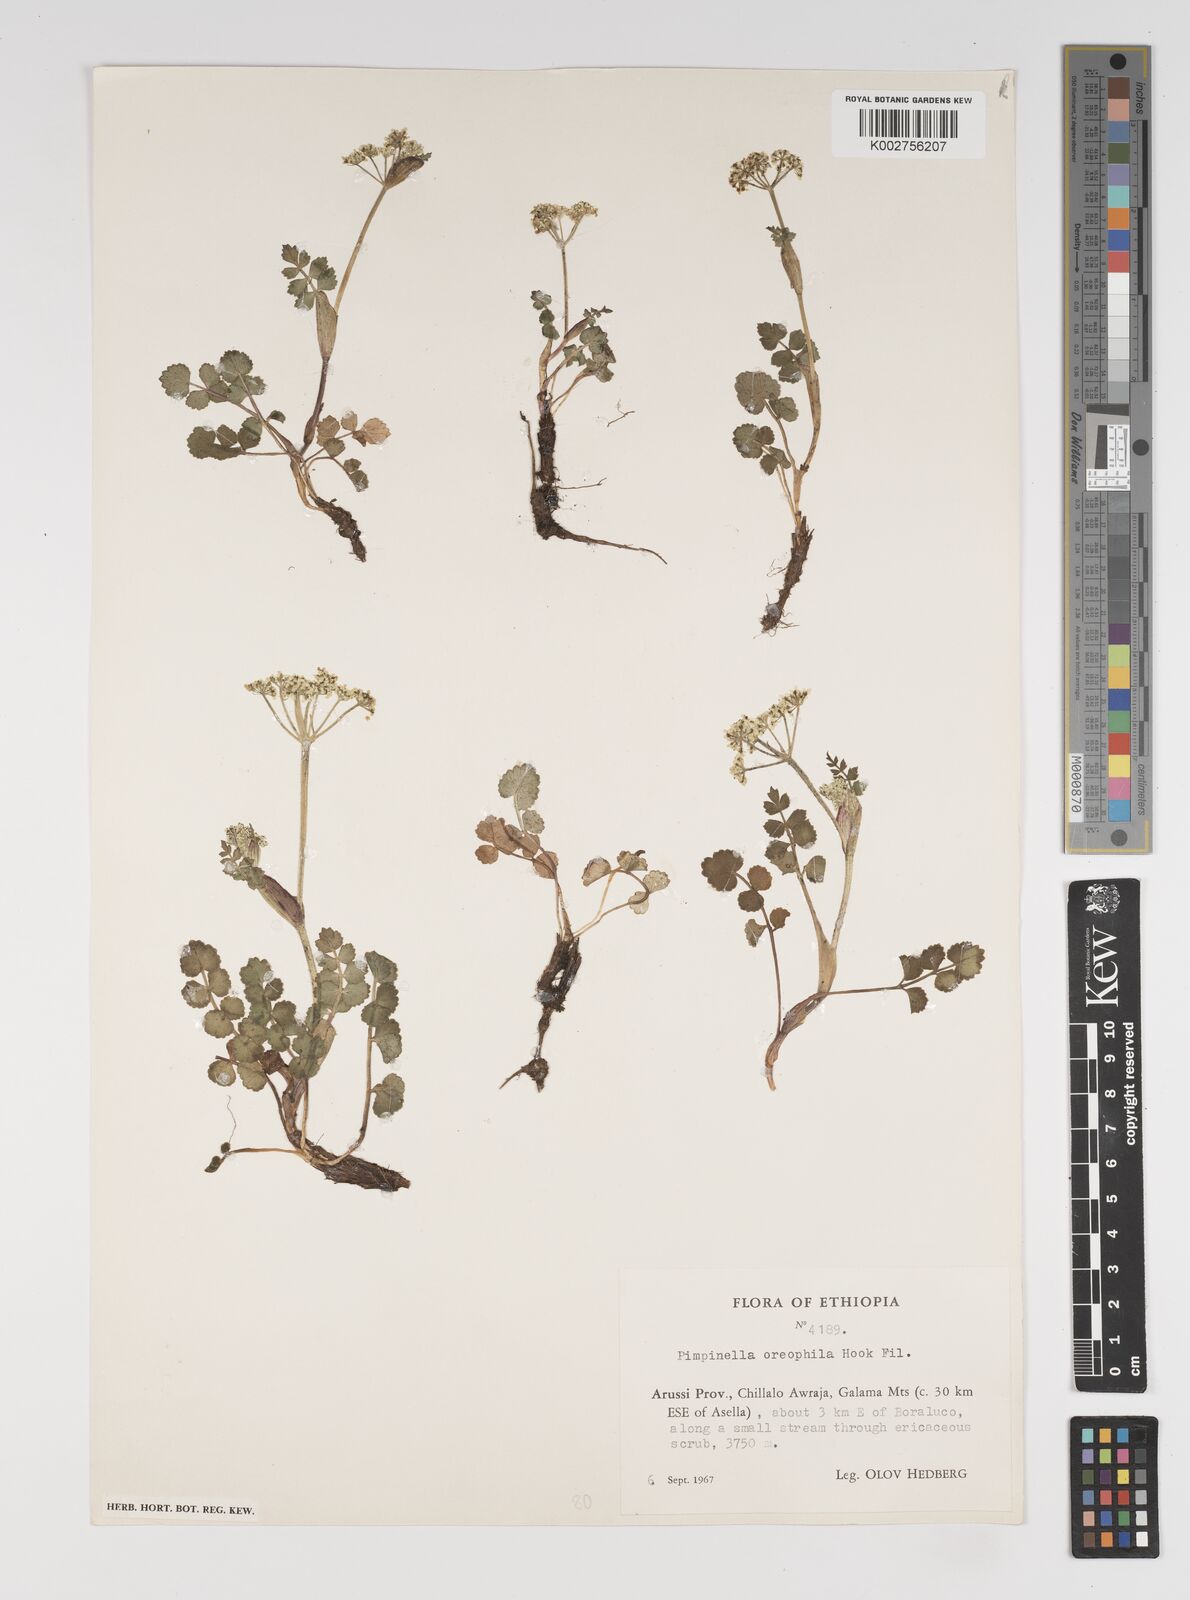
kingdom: Plantae
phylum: Tracheophyta
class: Magnoliopsida
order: Apiales
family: Apiaceae
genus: Pimpinella
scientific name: Pimpinella oreophila
